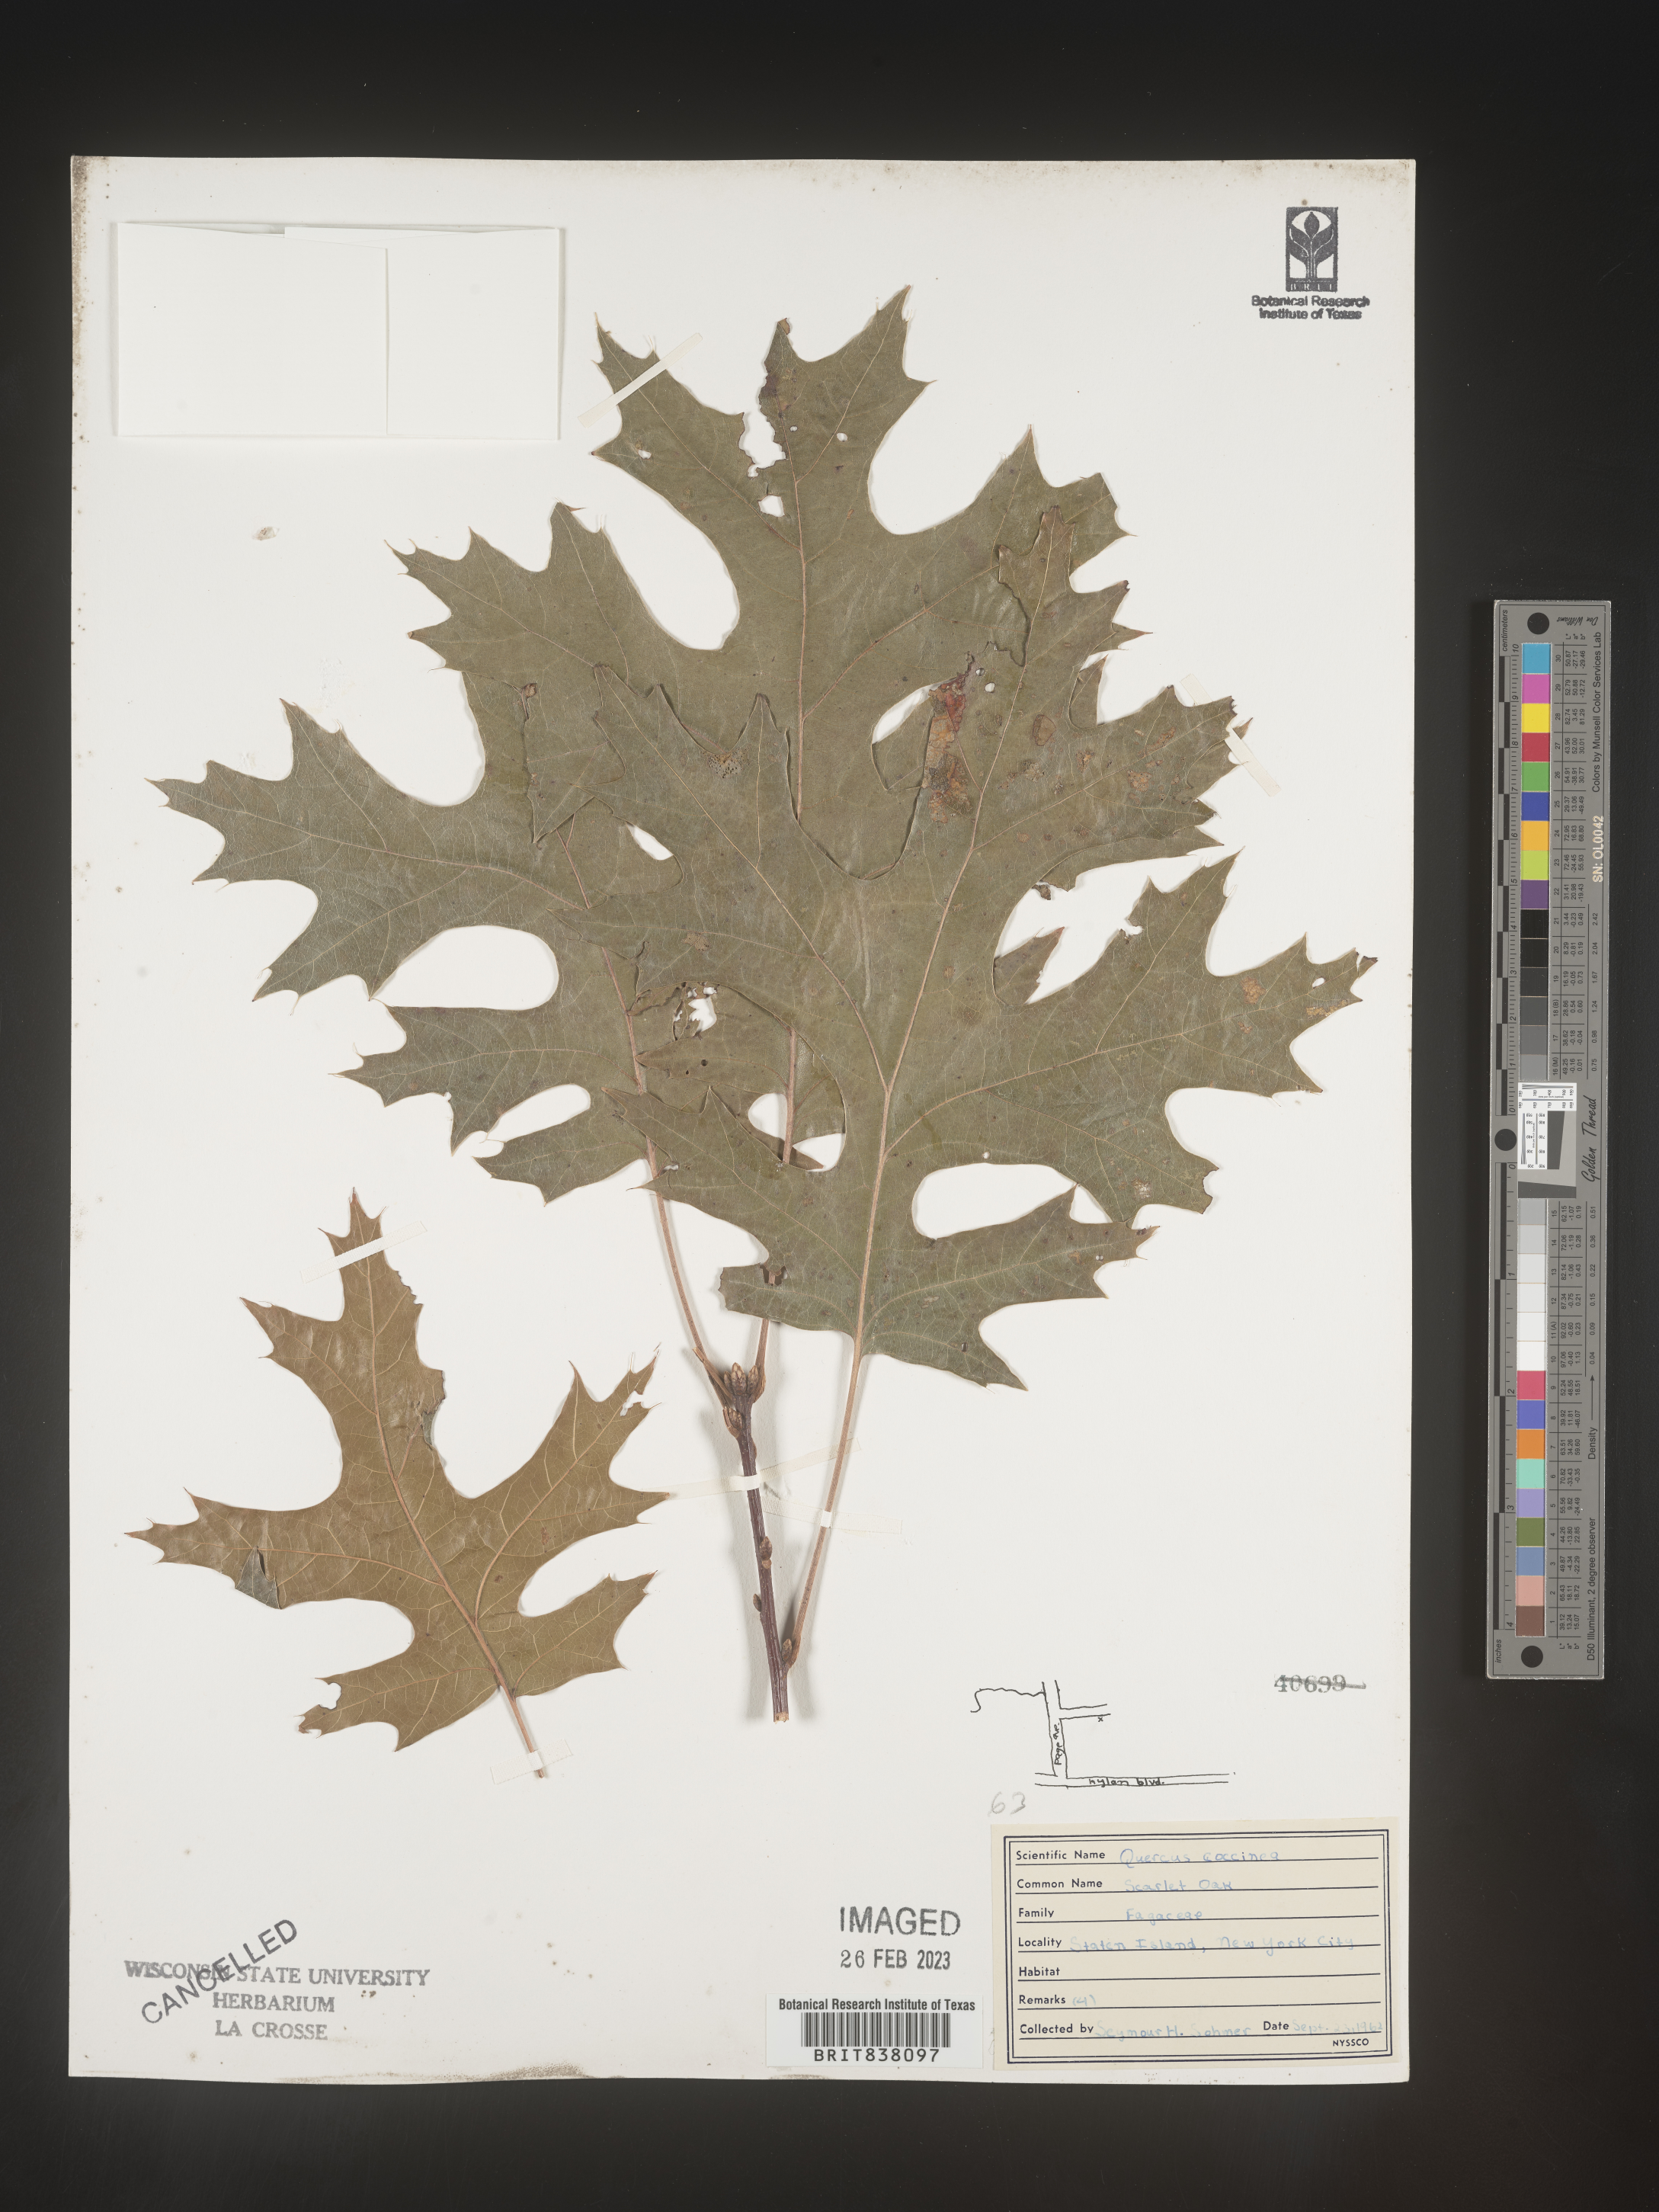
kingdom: Plantae
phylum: Tracheophyta
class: Magnoliopsida
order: Fagales
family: Fagaceae
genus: Quercus
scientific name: Quercus coccinea
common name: Scarlet oak
